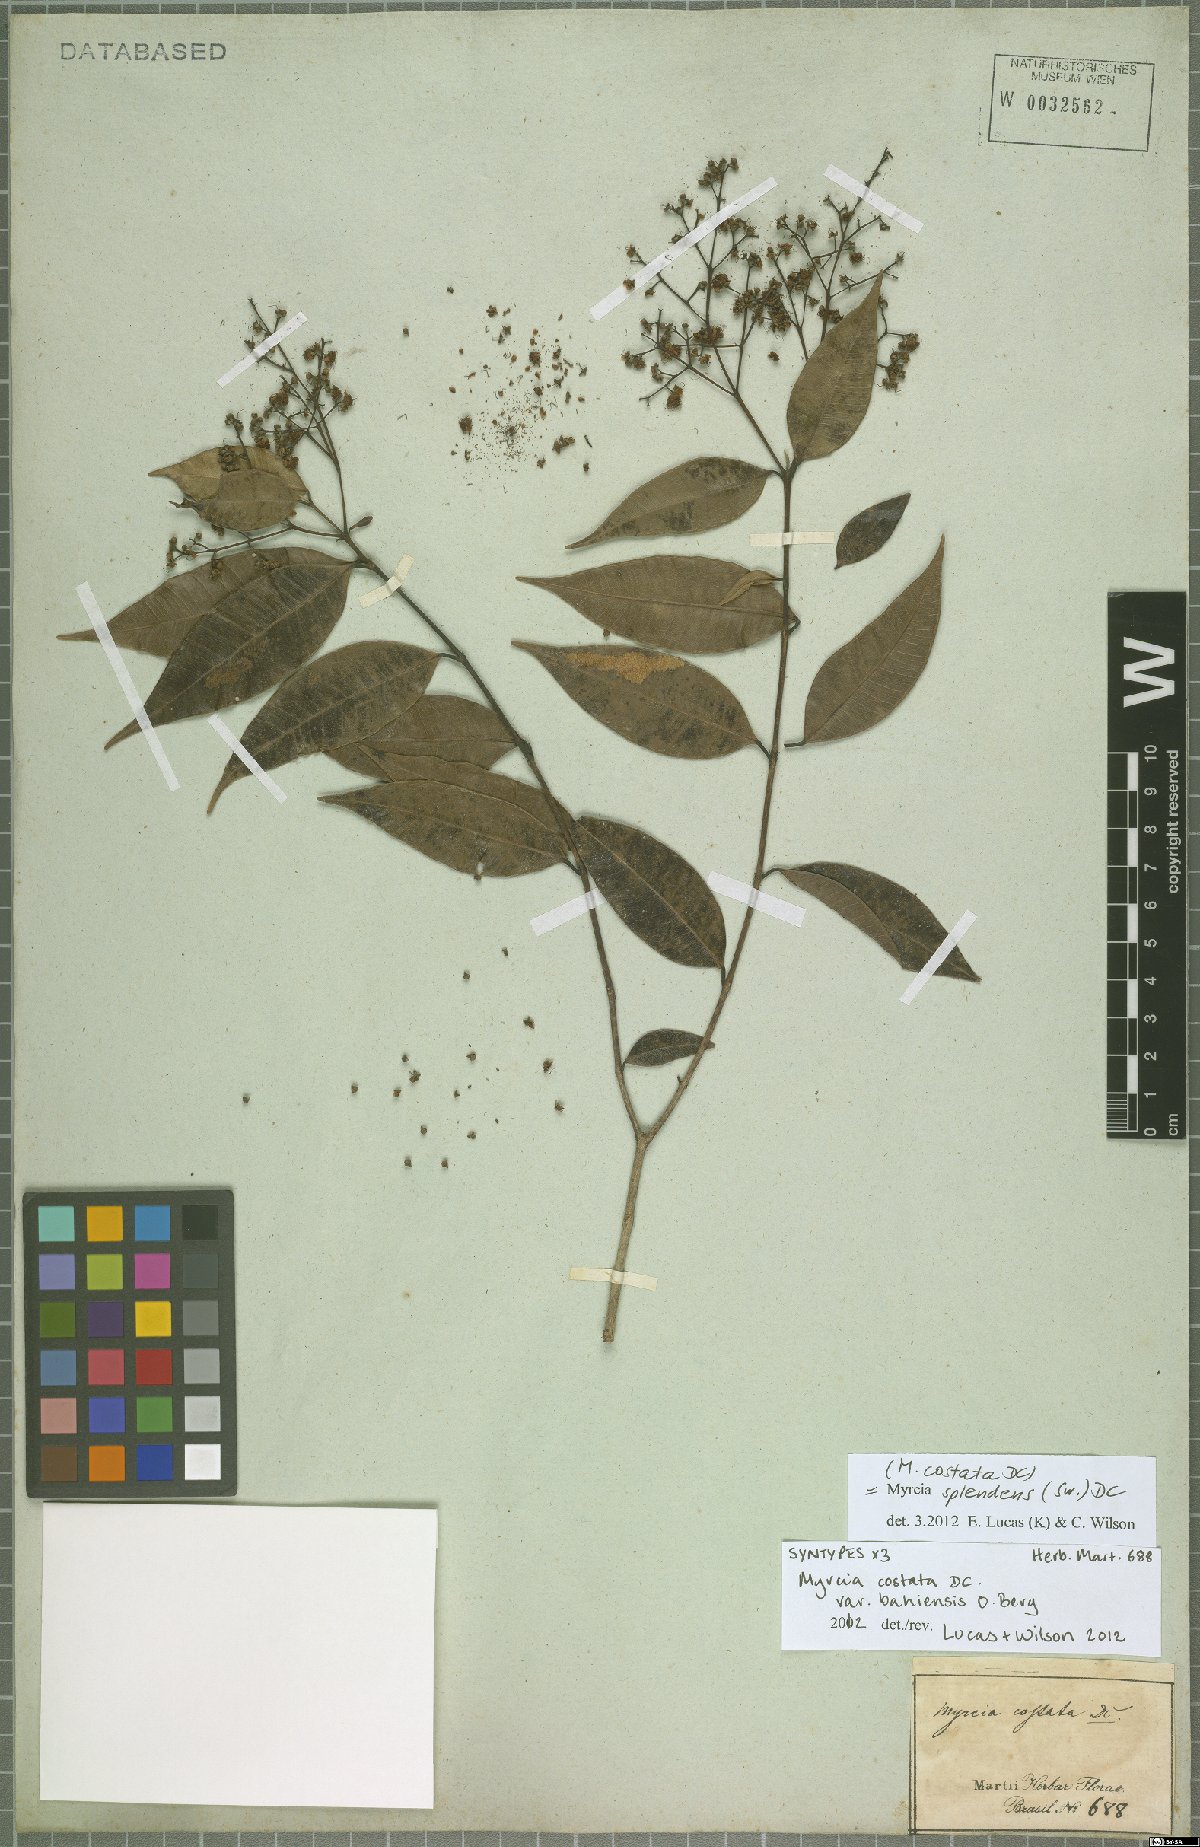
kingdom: Plantae
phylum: Tracheophyta
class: Magnoliopsida
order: Myrtales
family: Myrtaceae
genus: Myrcia
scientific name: Myrcia splendens
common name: Surinam cherry
